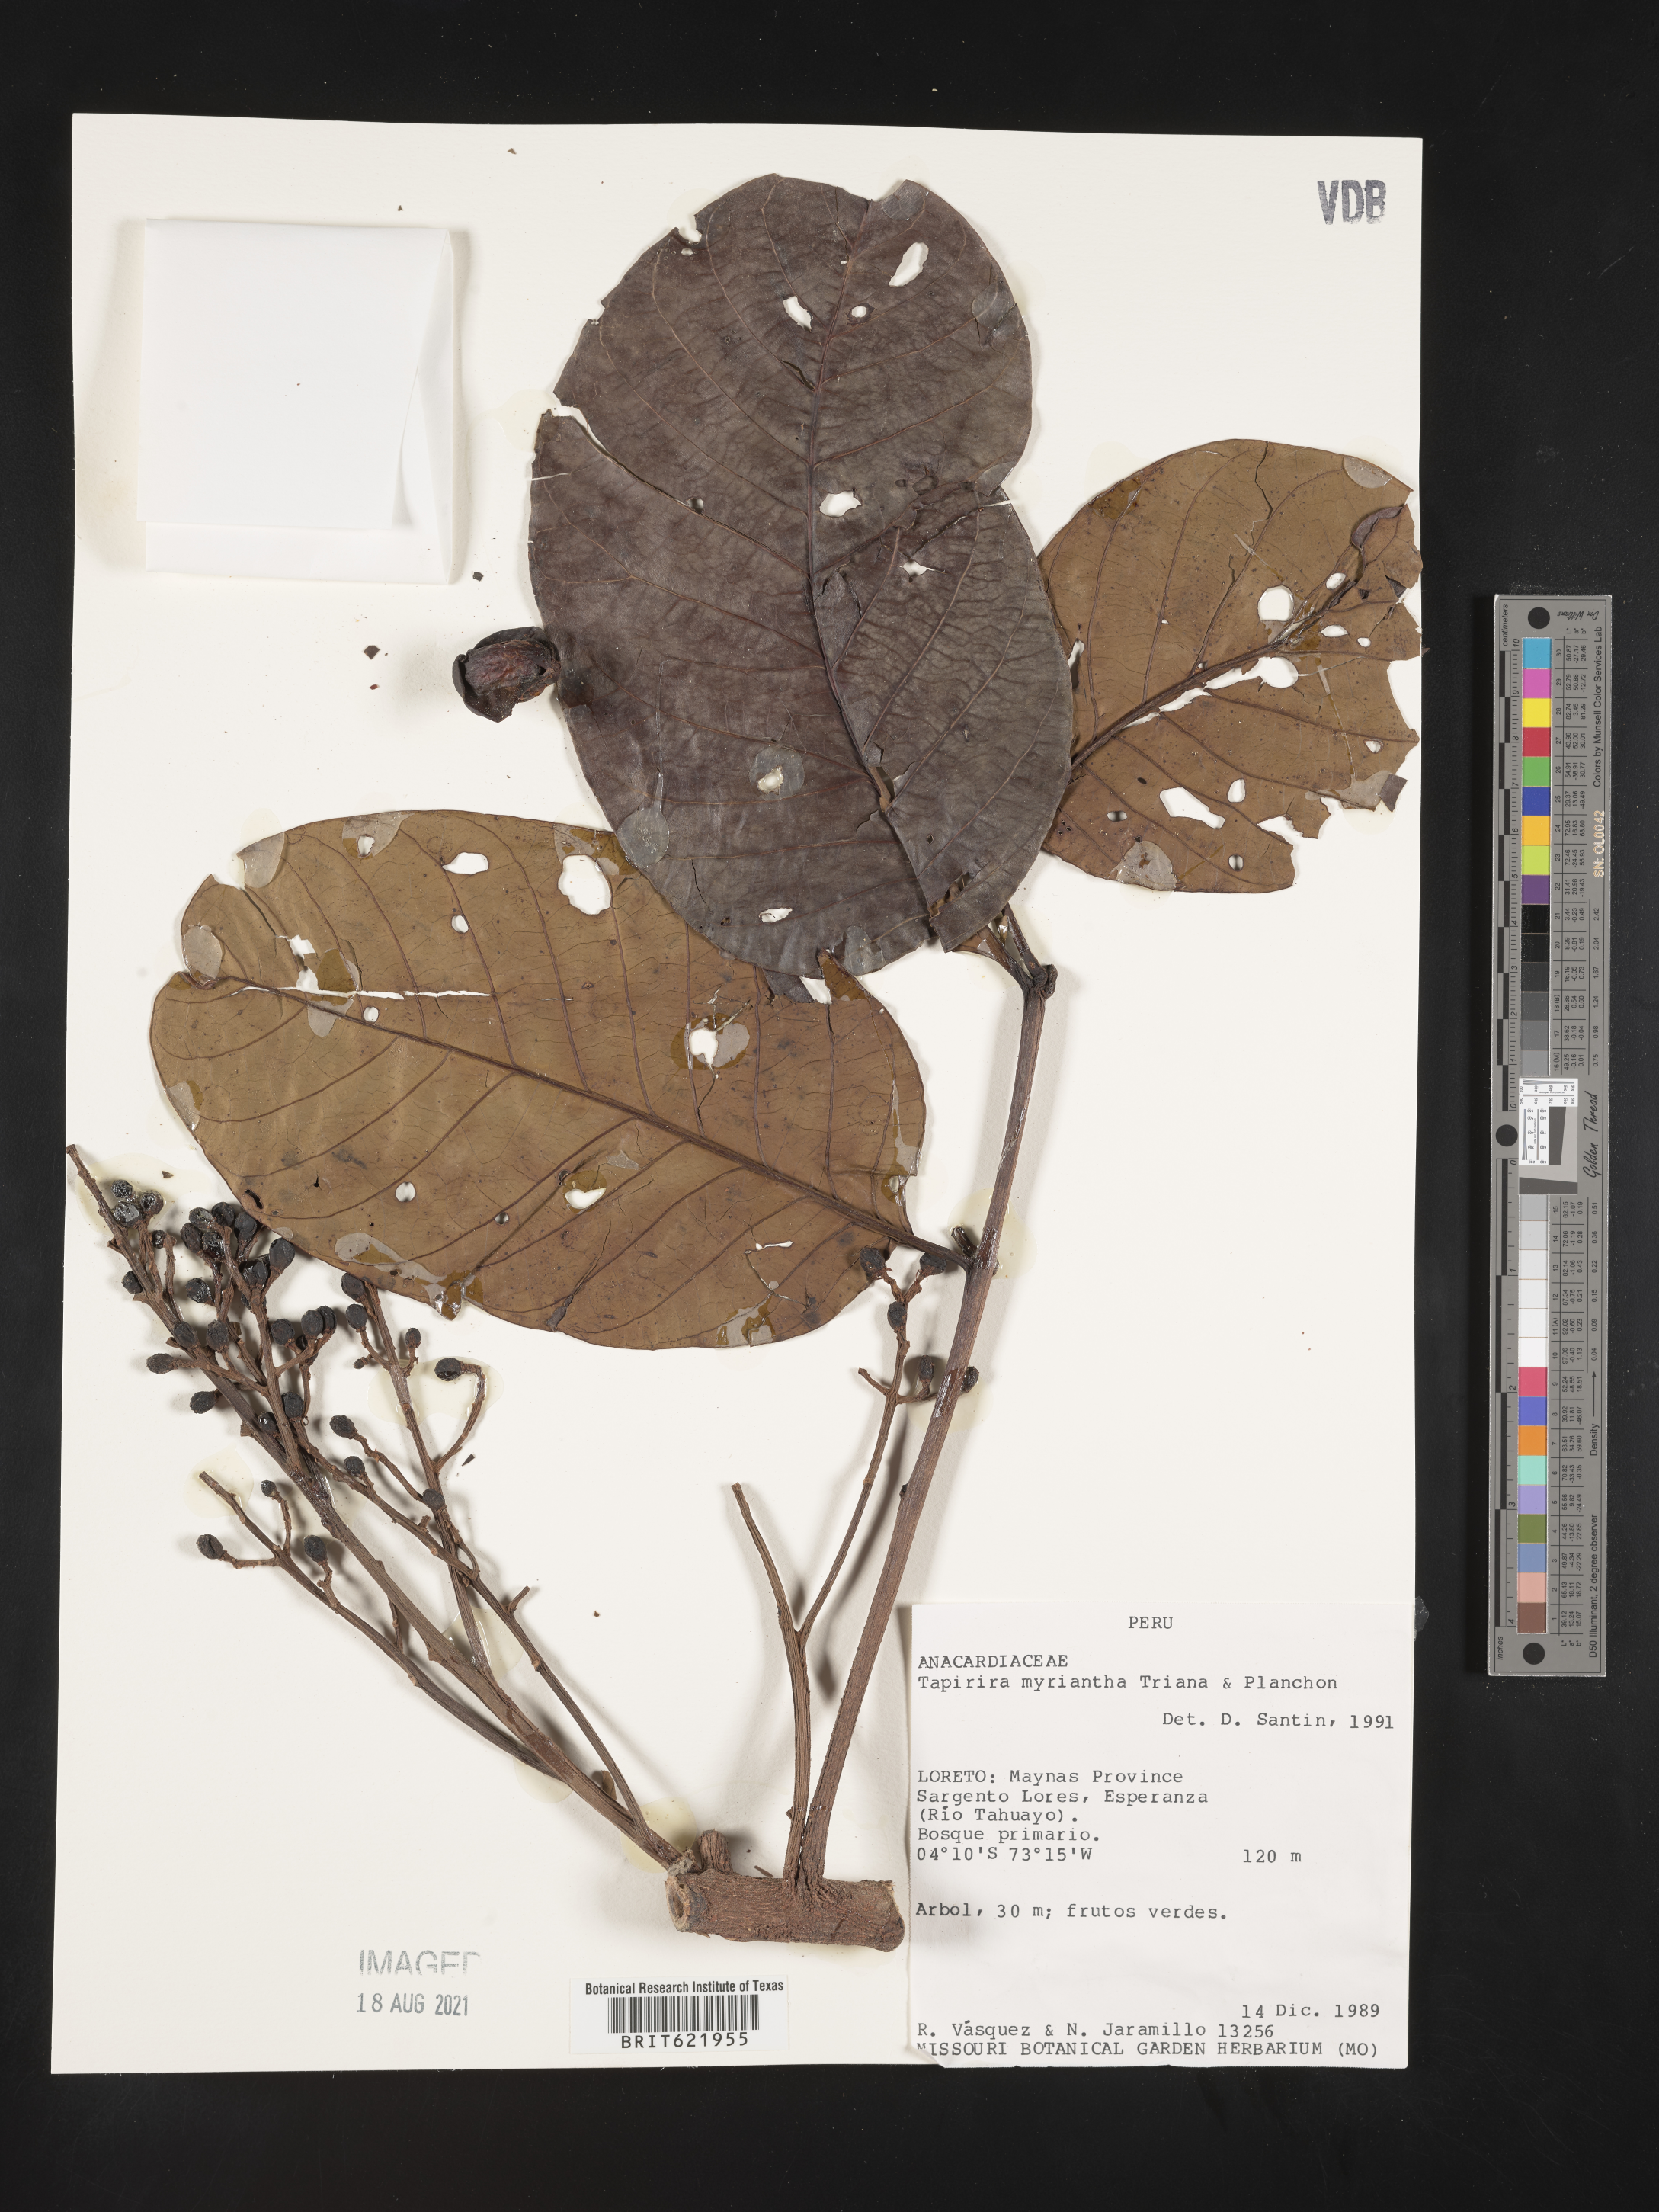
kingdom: Plantae
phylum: Tracheophyta
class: Magnoliopsida
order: Sapindales
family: Anacardiaceae
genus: Tapirira
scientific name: Tapirira guianensis
